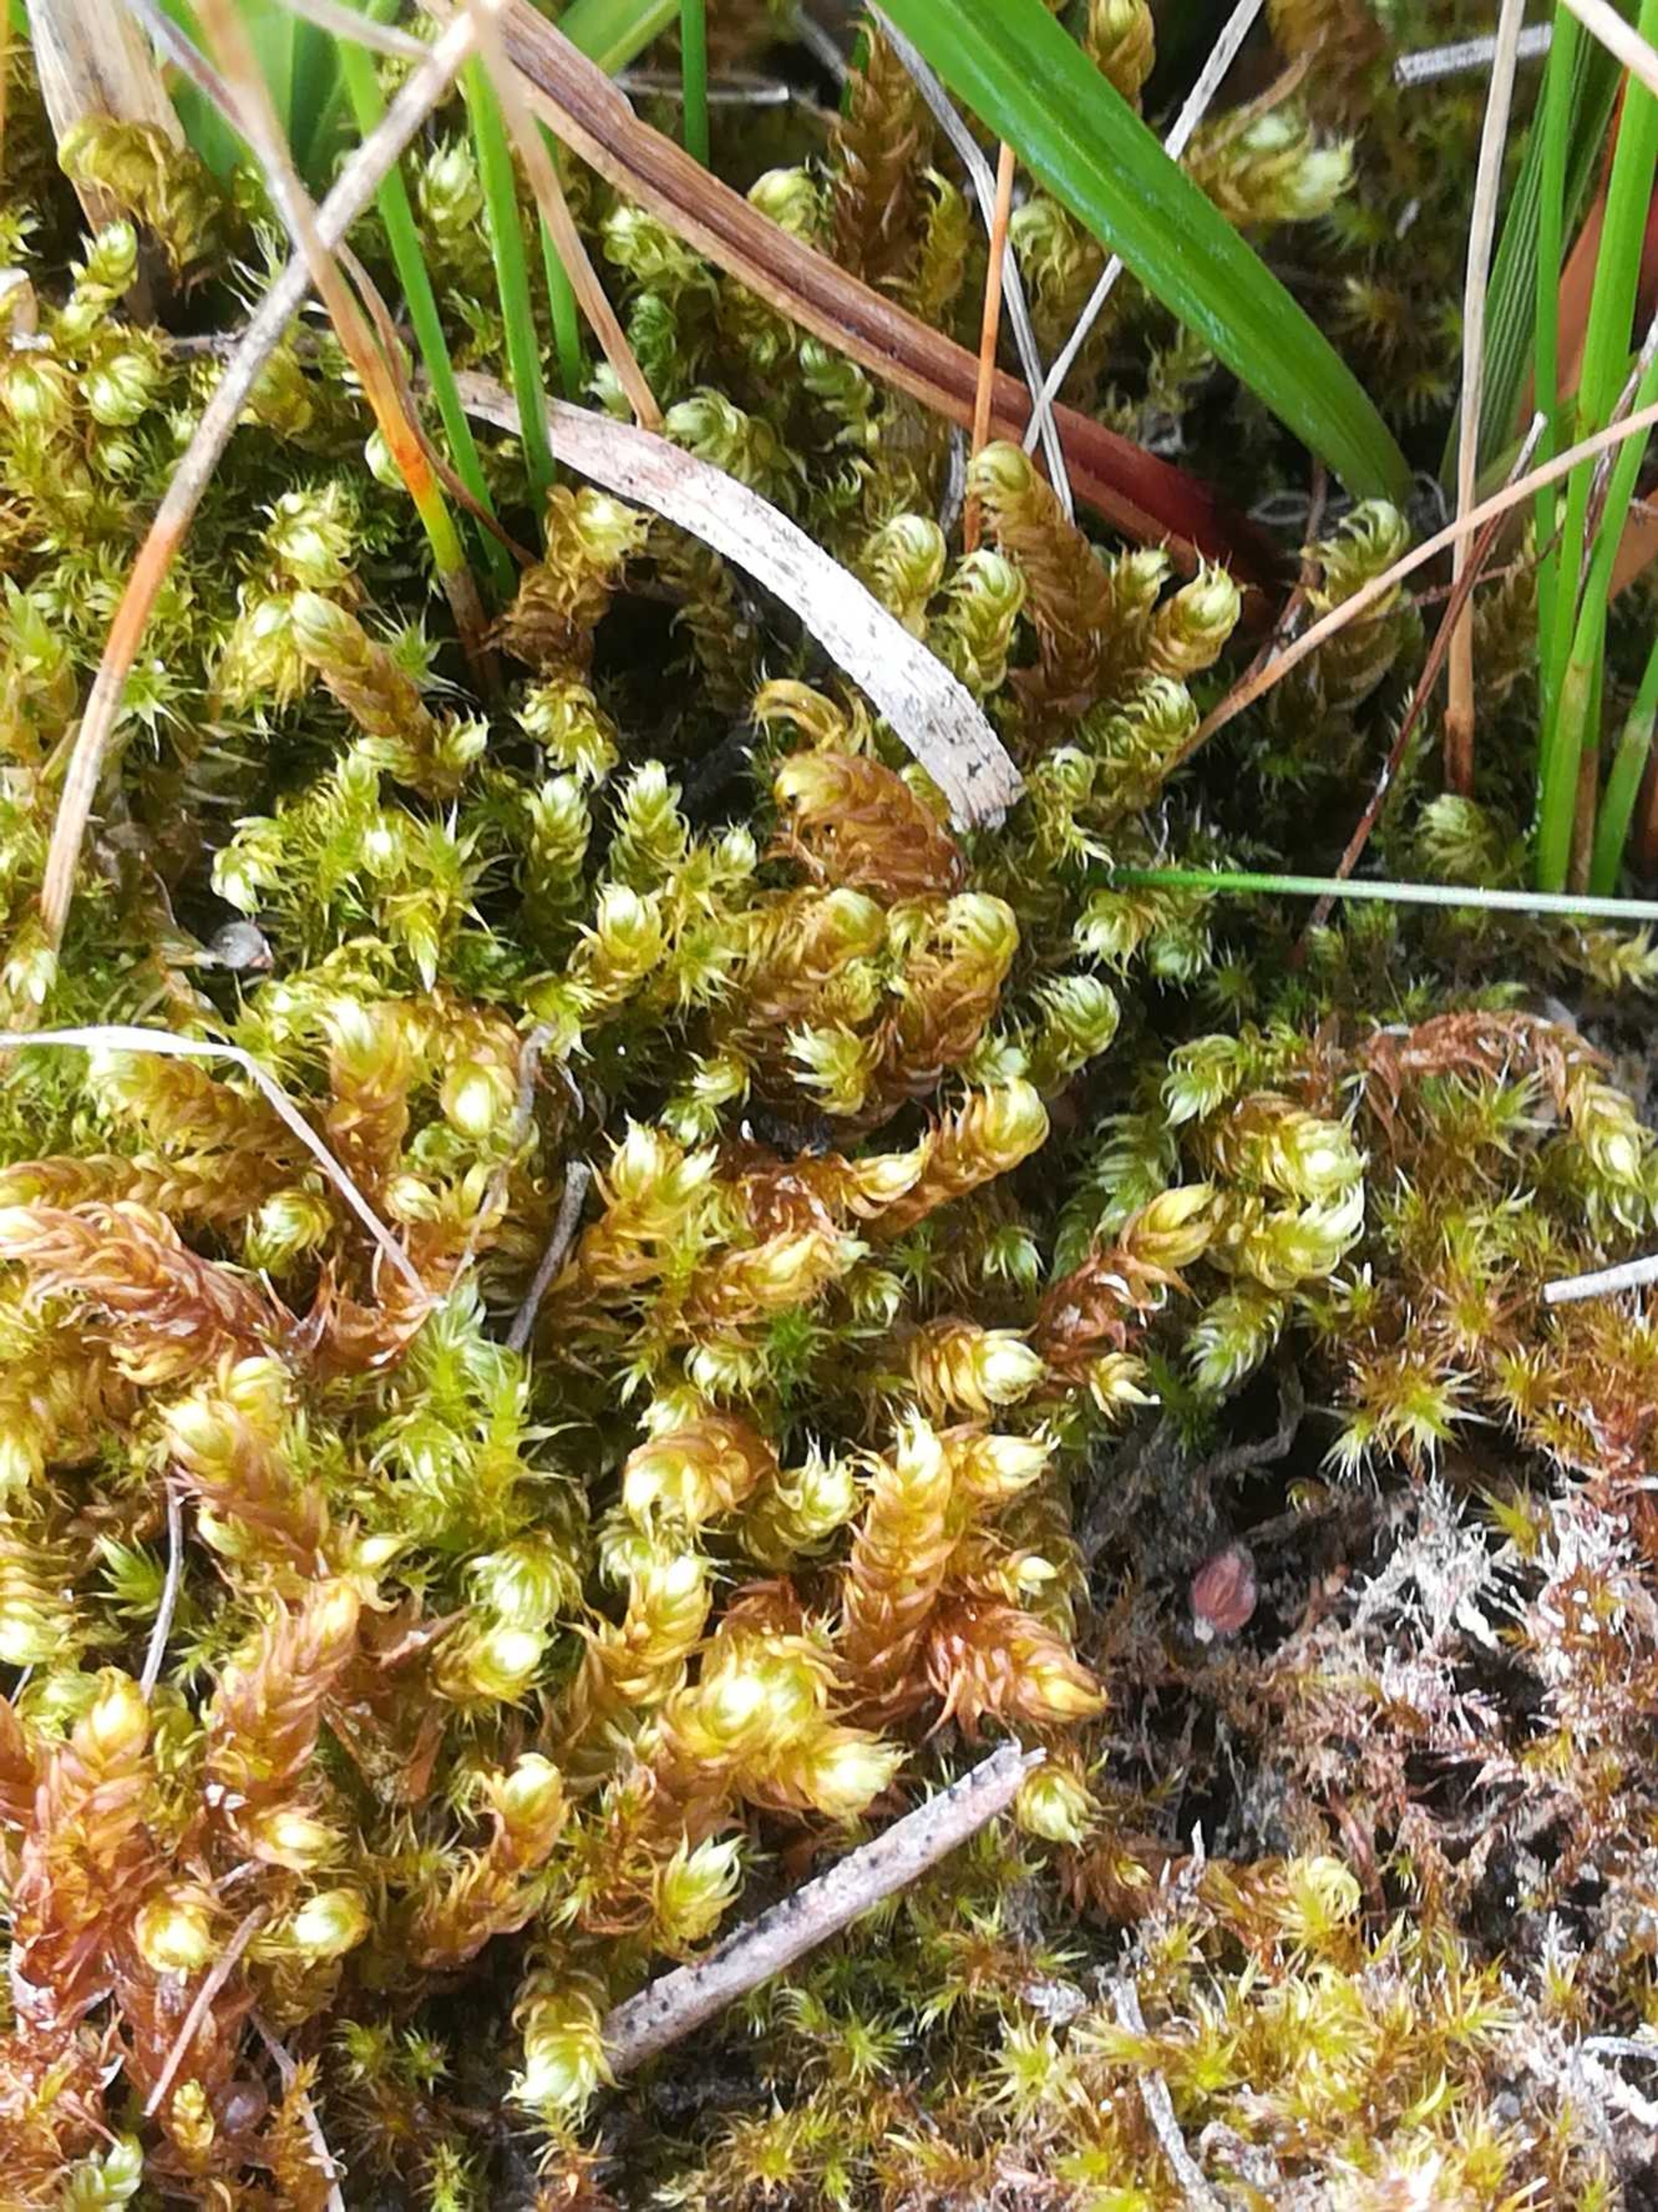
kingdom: Plantae
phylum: Bryophyta
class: Bryopsida
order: Hypnales
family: Amblystegiaceae
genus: Drepanocladus
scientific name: Drepanocladus lycopodioides
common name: Blød seglmos
